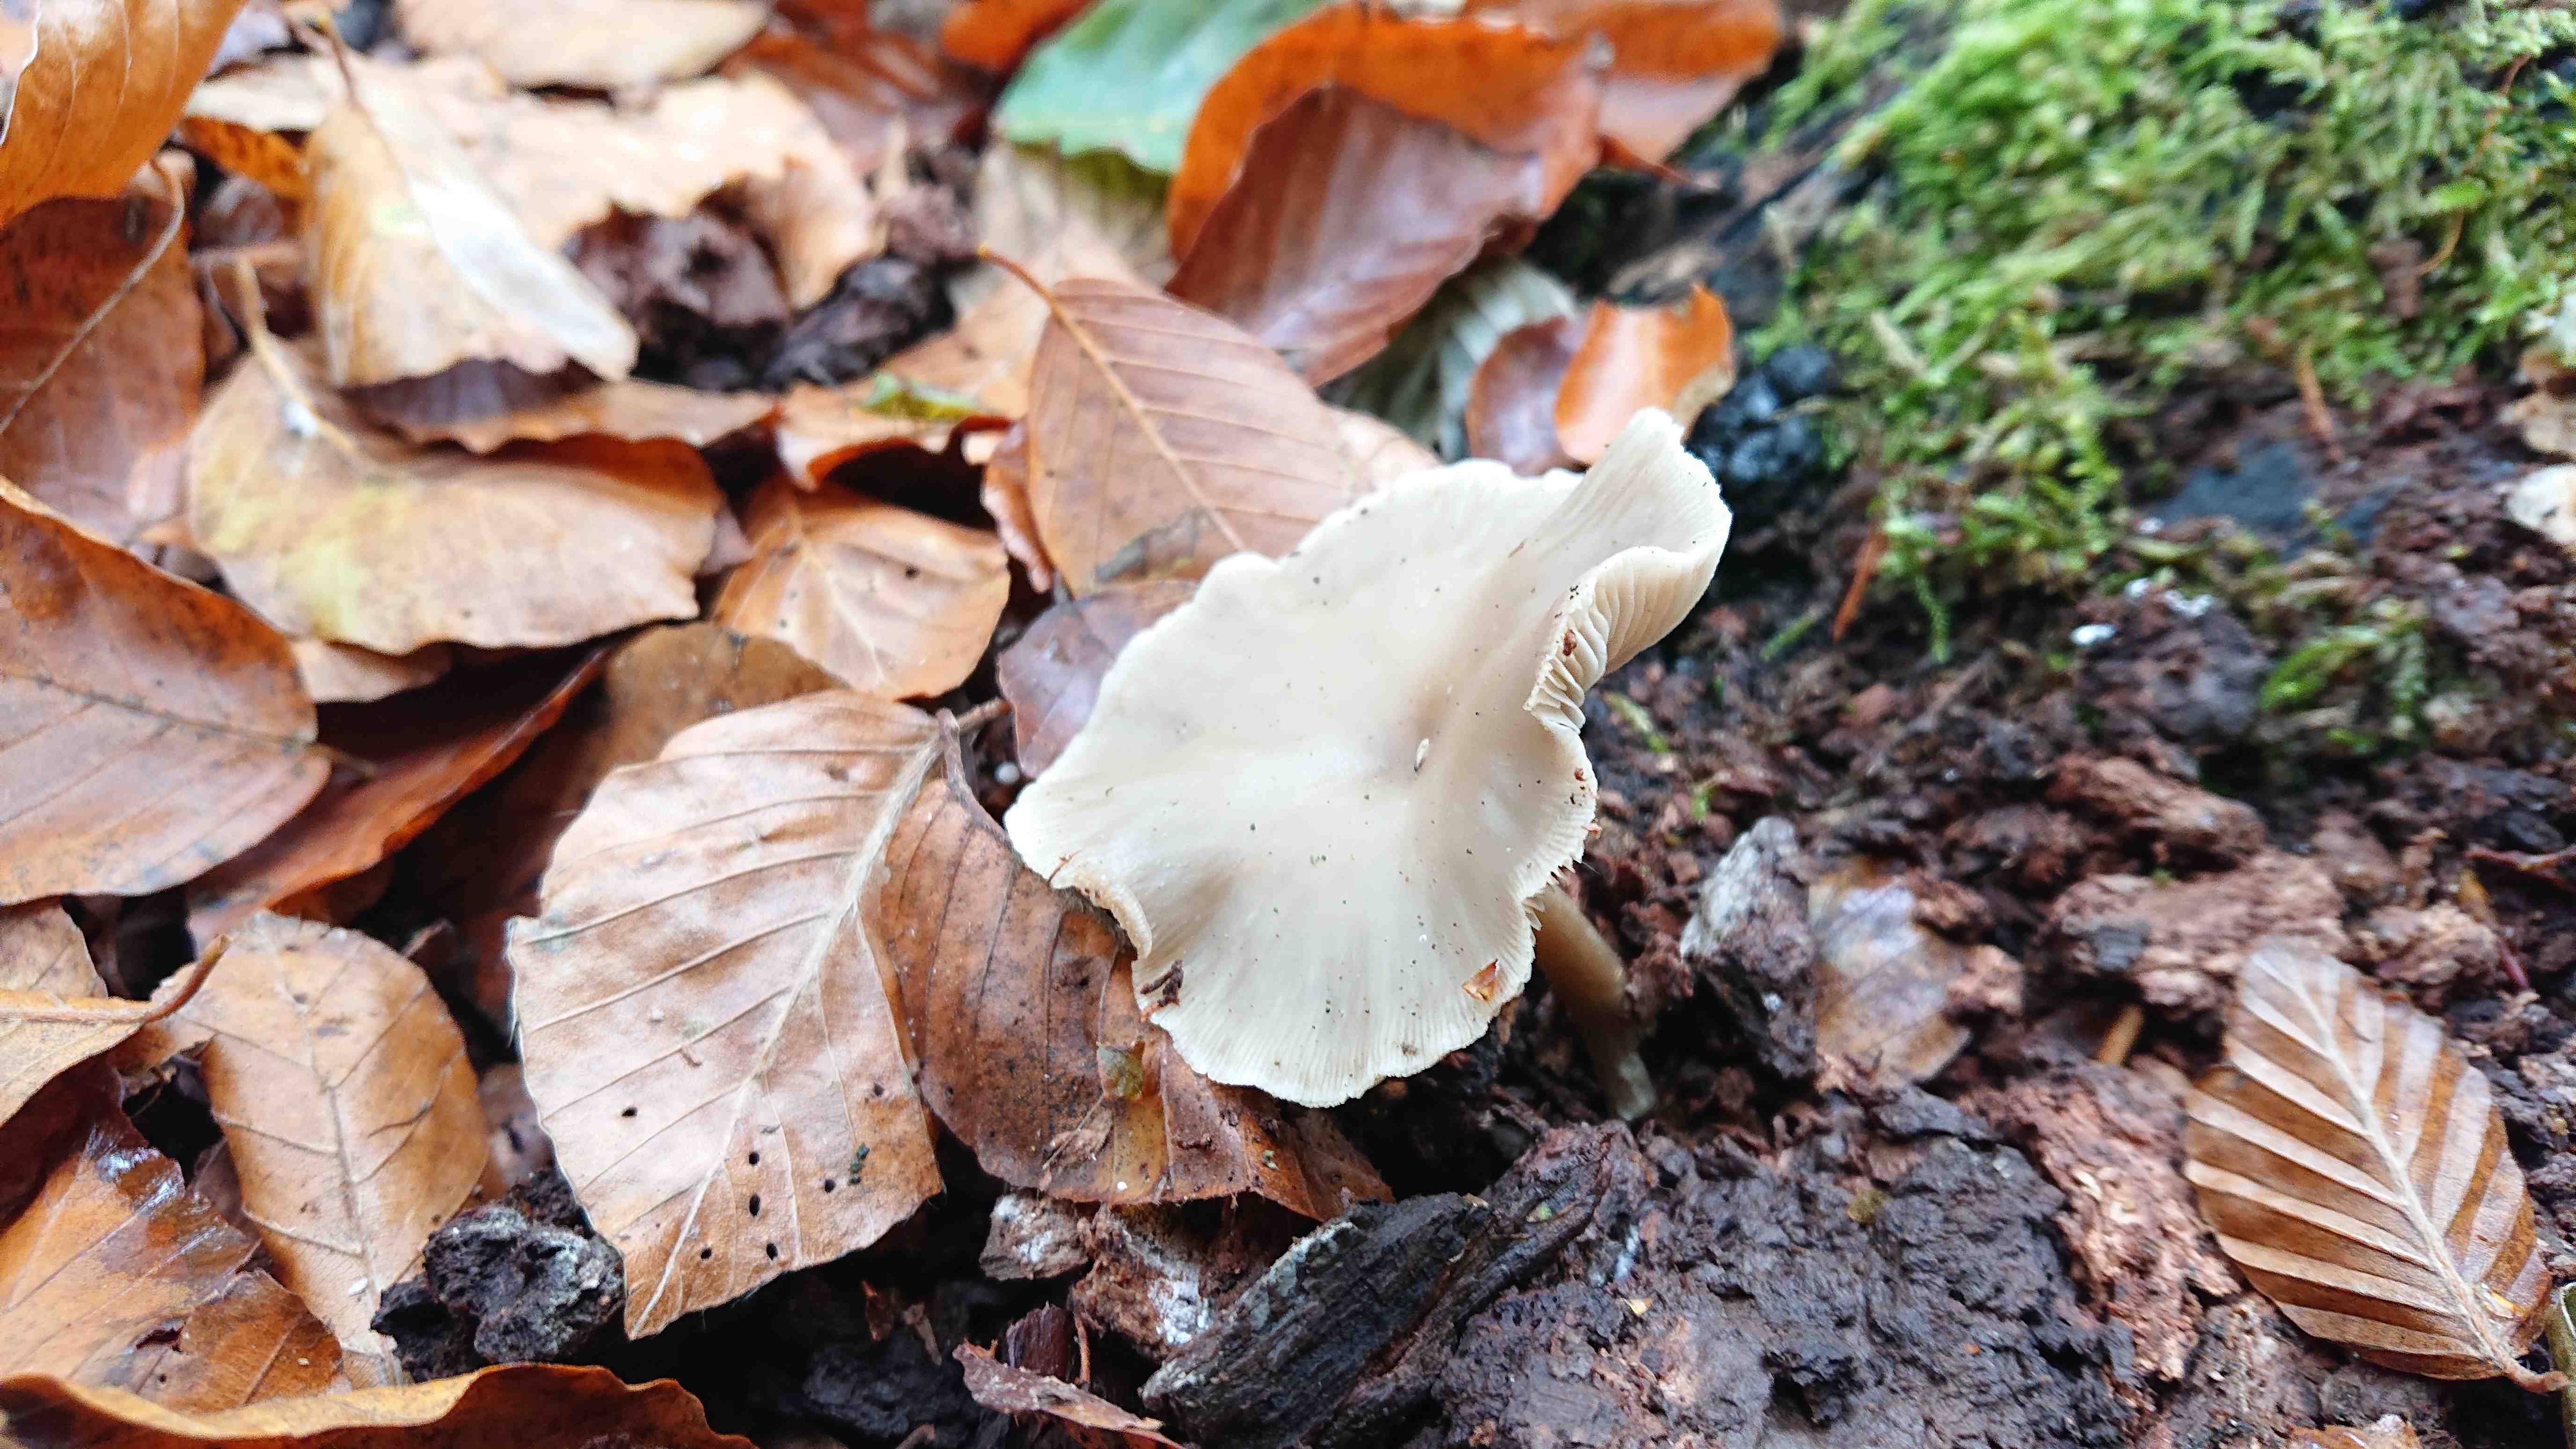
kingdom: Fungi
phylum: Basidiomycota
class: Agaricomycetes
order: Agaricales
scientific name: Agaricales
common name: champignonordenen
